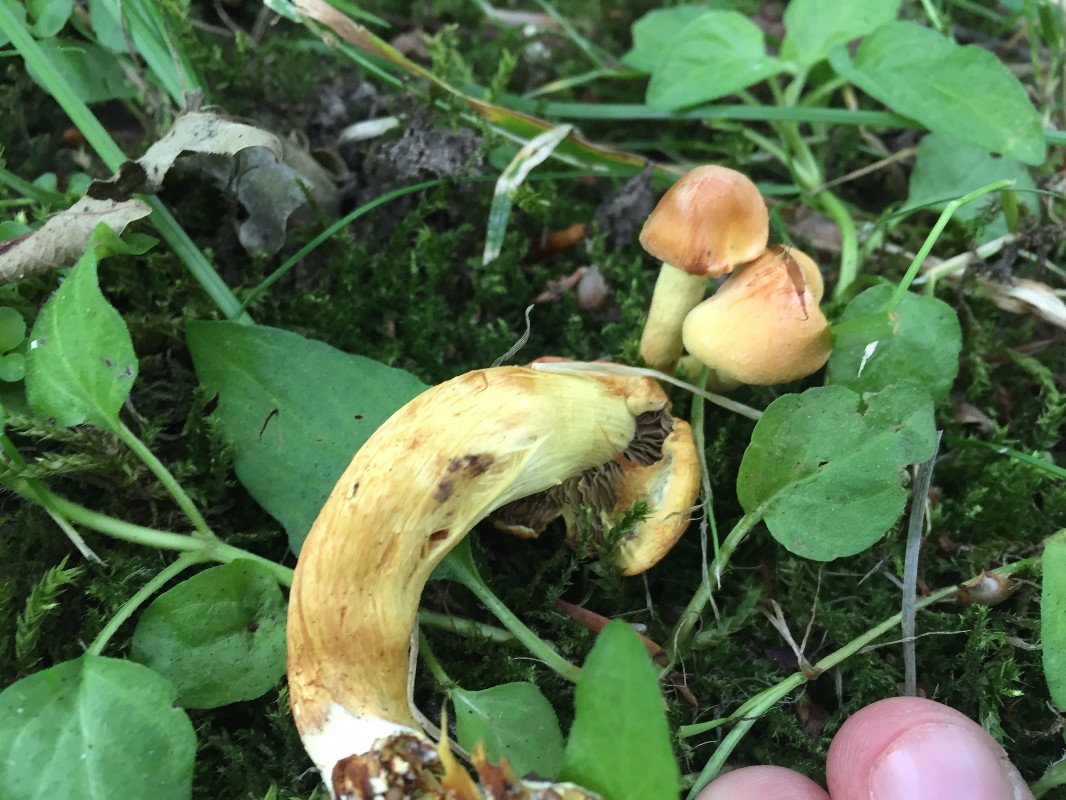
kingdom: Fungi
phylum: Basidiomycota
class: Agaricomycetes
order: Agaricales
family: Strophariaceae
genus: Hypholoma
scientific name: Hypholoma fasciculare
